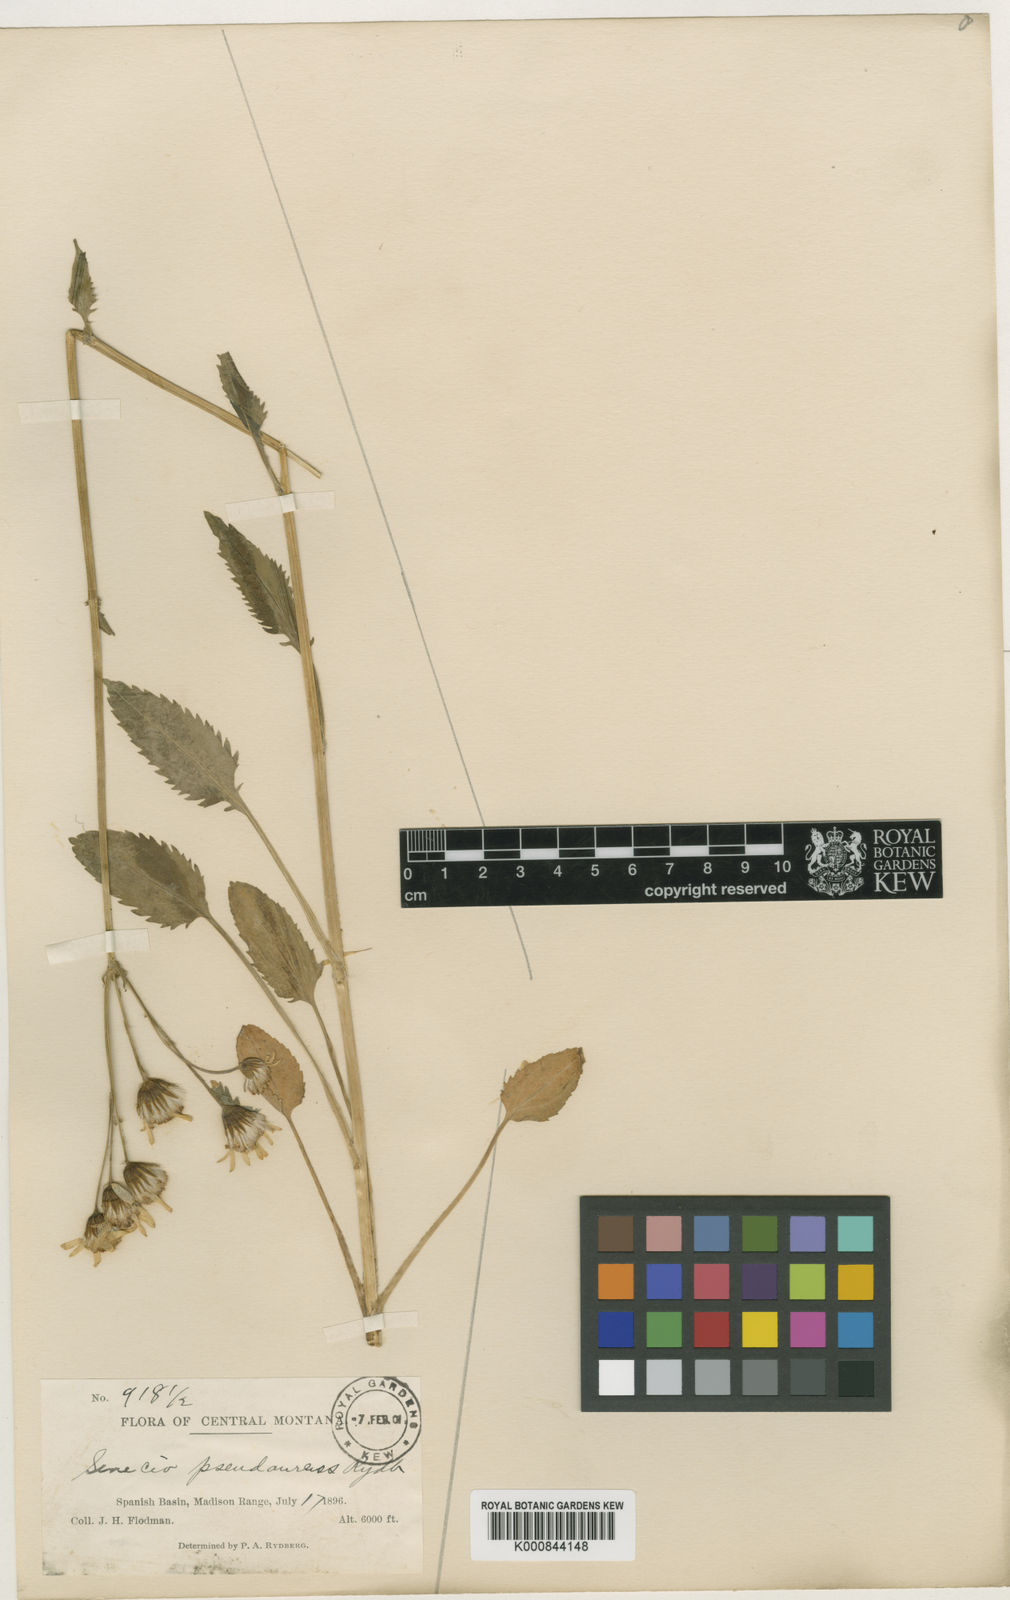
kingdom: Plantae
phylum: Tracheophyta
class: Magnoliopsida
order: Asterales
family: Asteraceae
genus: Packera
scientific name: Packera
